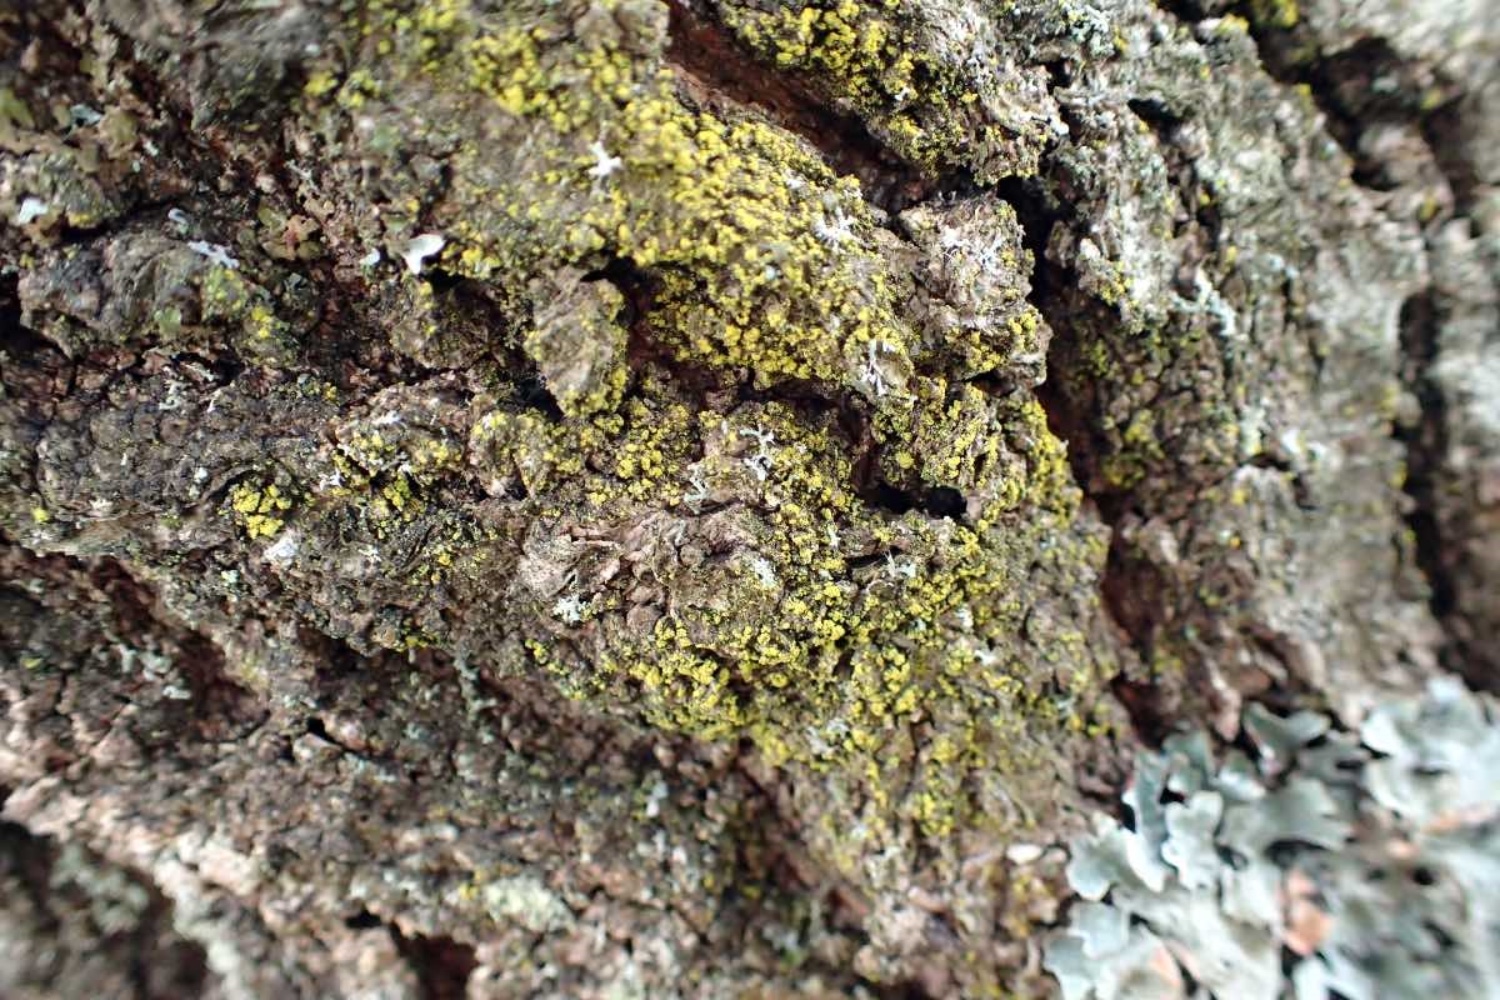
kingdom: Fungi
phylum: Ascomycota
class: Candelariomycetes
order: Candelariales
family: Candelariaceae
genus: Candelariella
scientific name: Candelariella reflexa
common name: grynskællet æggeblommelav
